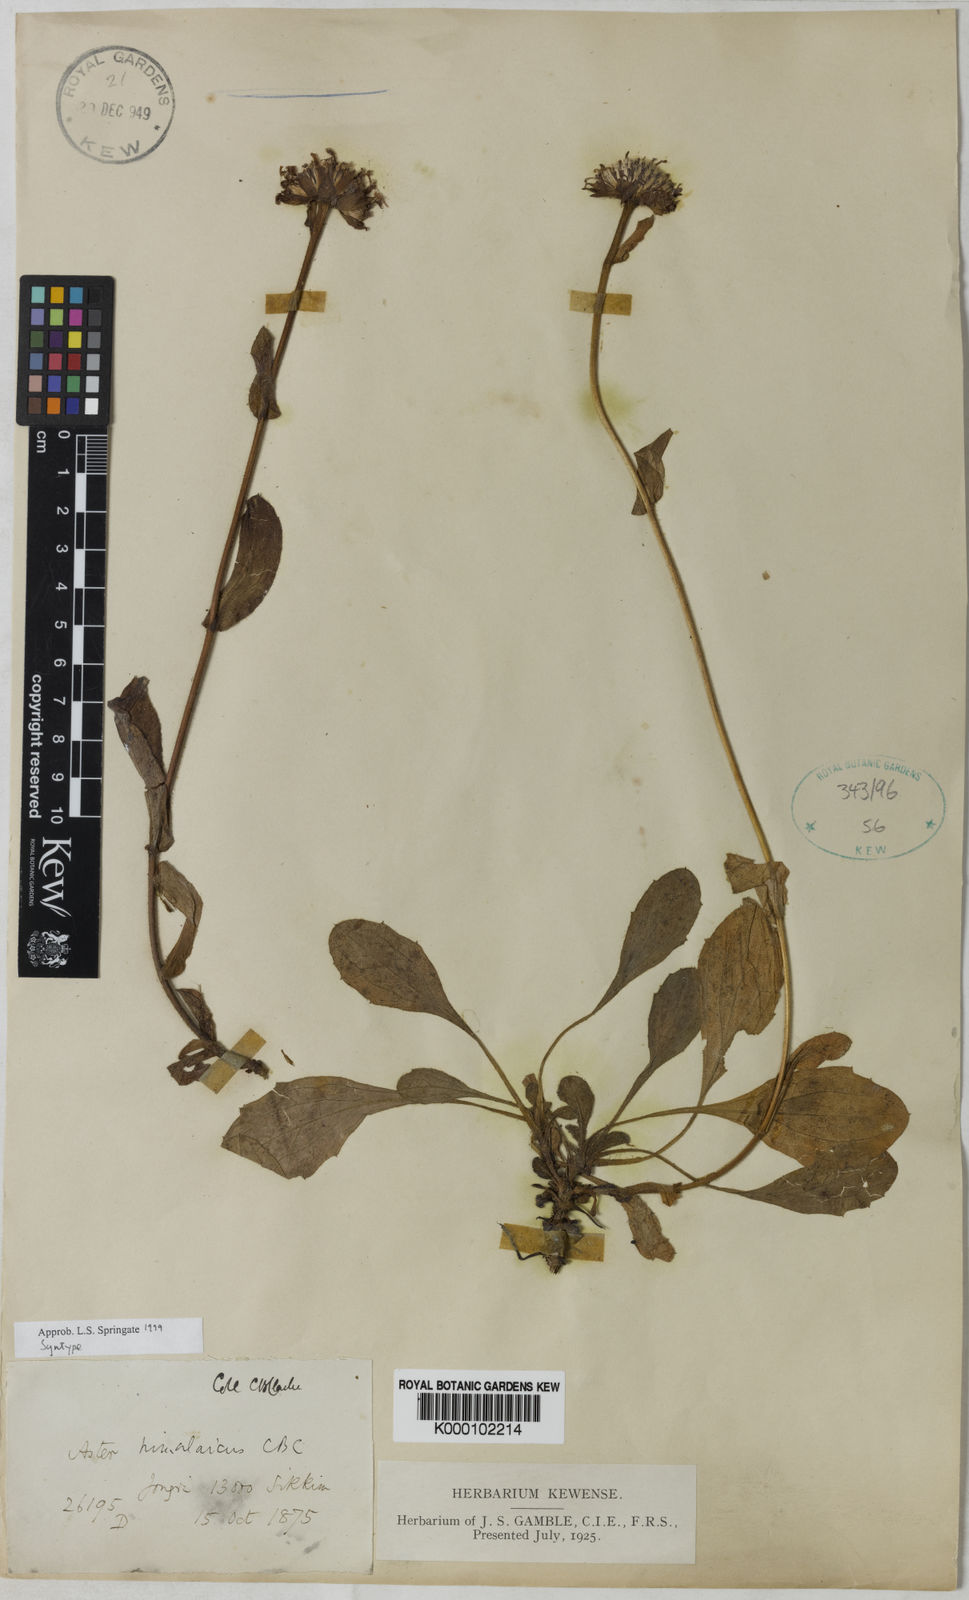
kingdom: Plantae
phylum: Tracheophyta
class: Magnoliopsida
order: Asterales
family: Asteraceae
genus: Tibetiodes
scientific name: Tibetiodes himalaica
